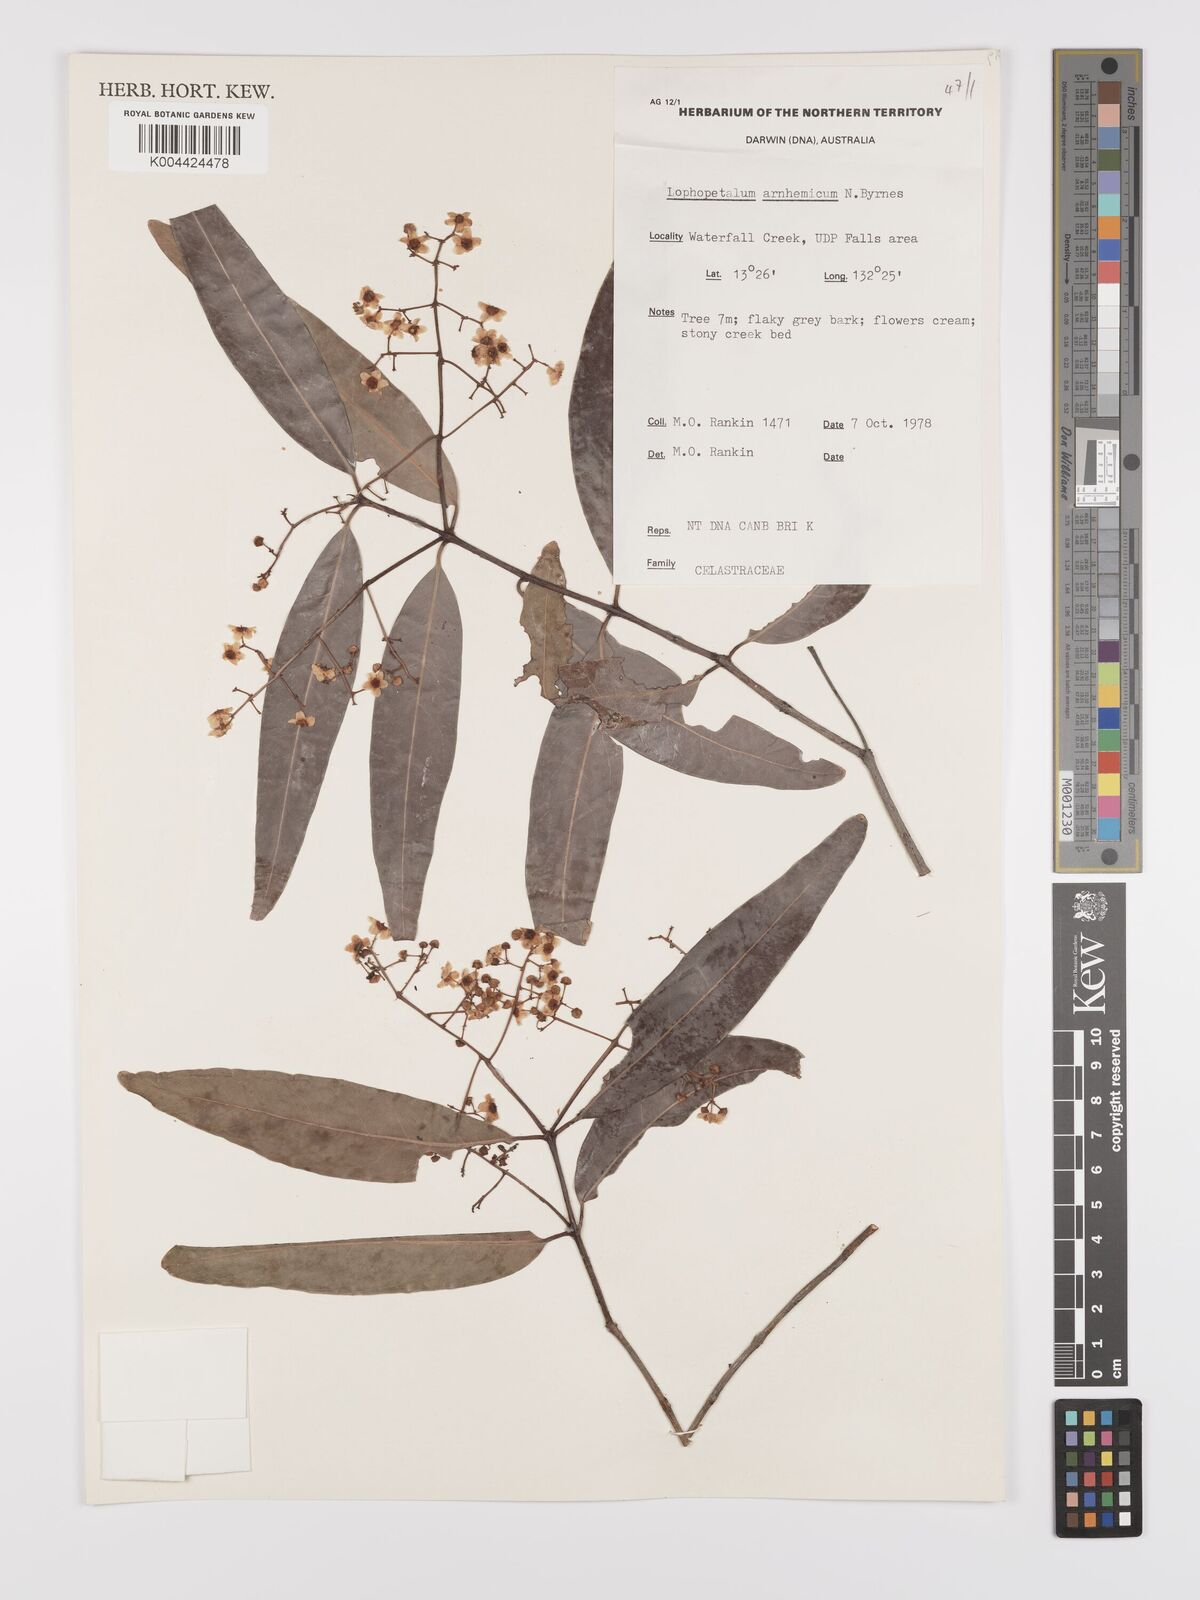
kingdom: Plantae
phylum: Tracheophyta
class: Magnoliopsida
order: Celastrales
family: Celastraceae
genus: Lophopetalum
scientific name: Lophopetalum arnhemicum
